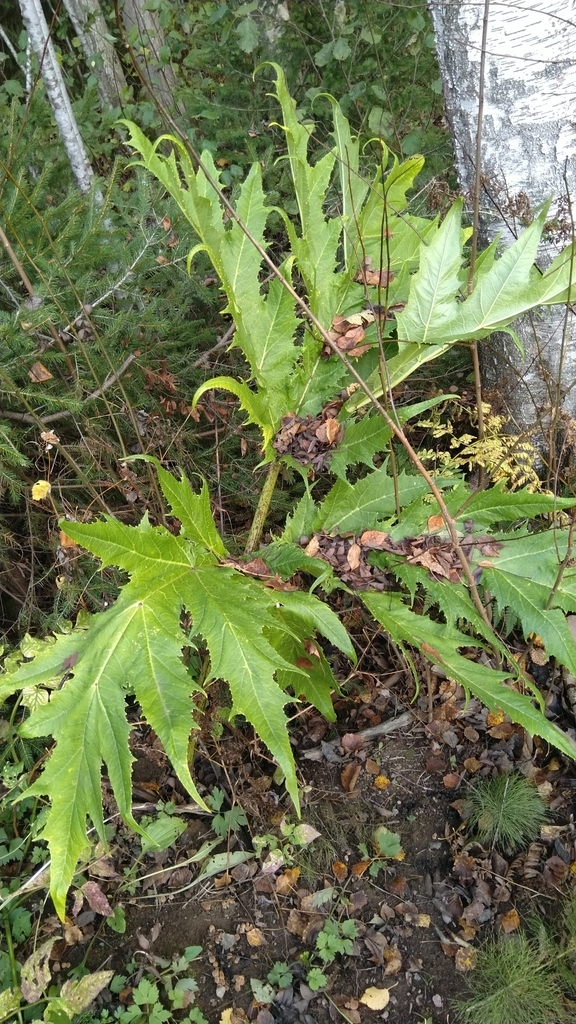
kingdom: Plantae
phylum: Tracheophyta
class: Magnoliopsida
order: Apiales
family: Apiaceae
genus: Heracleum
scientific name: Heracleum
